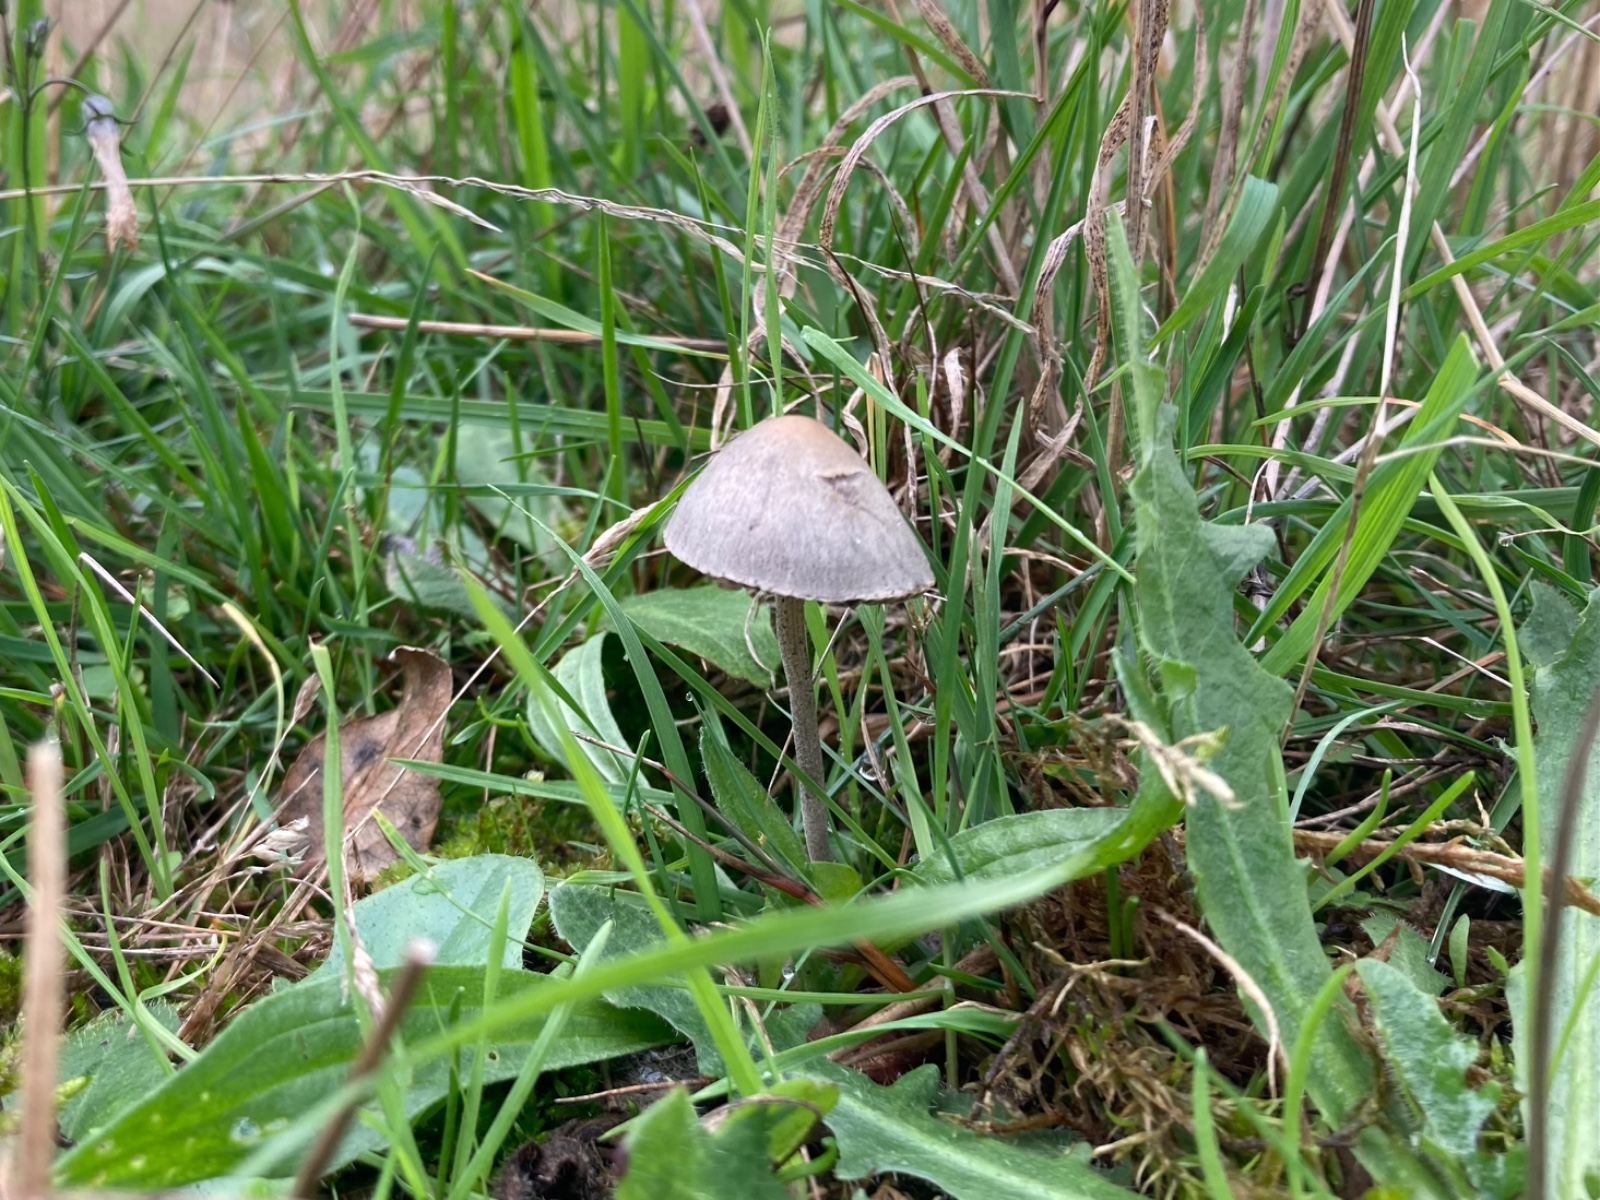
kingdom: Fungi
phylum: Basidiomycota
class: Agaricomycetes
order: Agaricales
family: Bolbitiaceae
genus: Panaeolus
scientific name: Panaeolus
